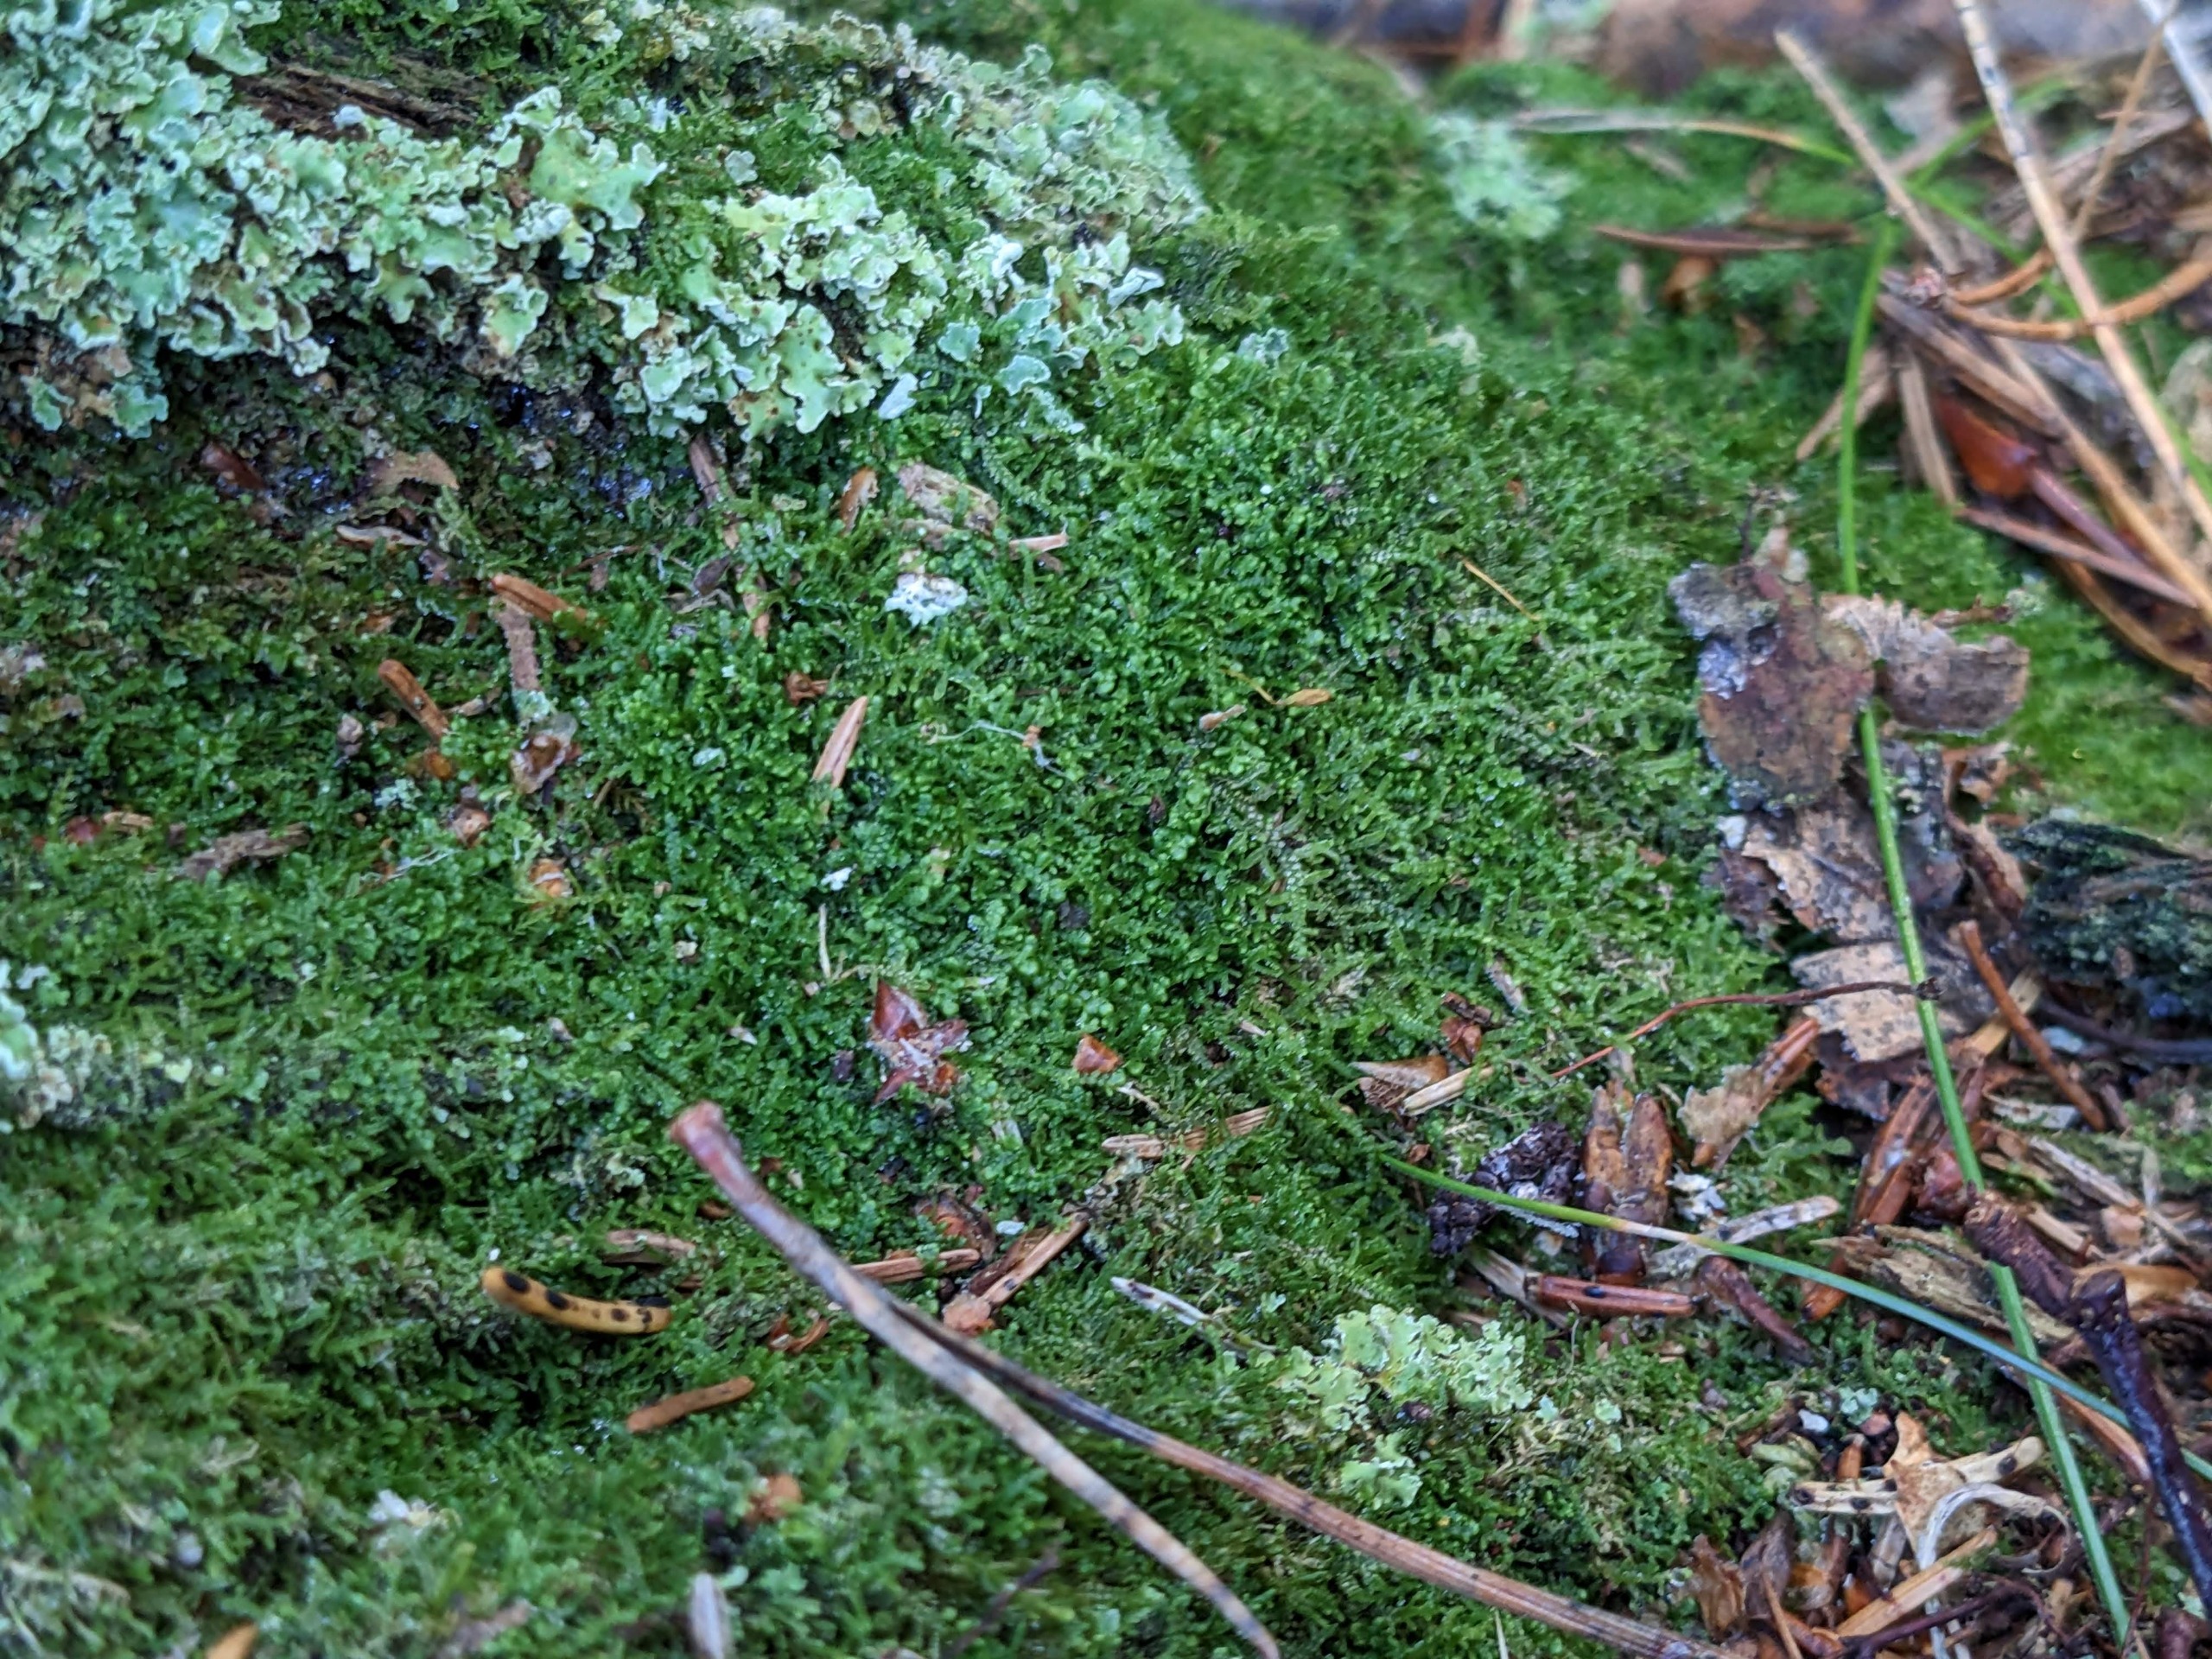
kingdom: Plantae
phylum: Marchantiophyta
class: Jungermanniopsida
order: Jungermanniales
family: Lepidoziaceae
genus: Lepidozia
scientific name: Lepidozia reptans
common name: Krybende fingermos
